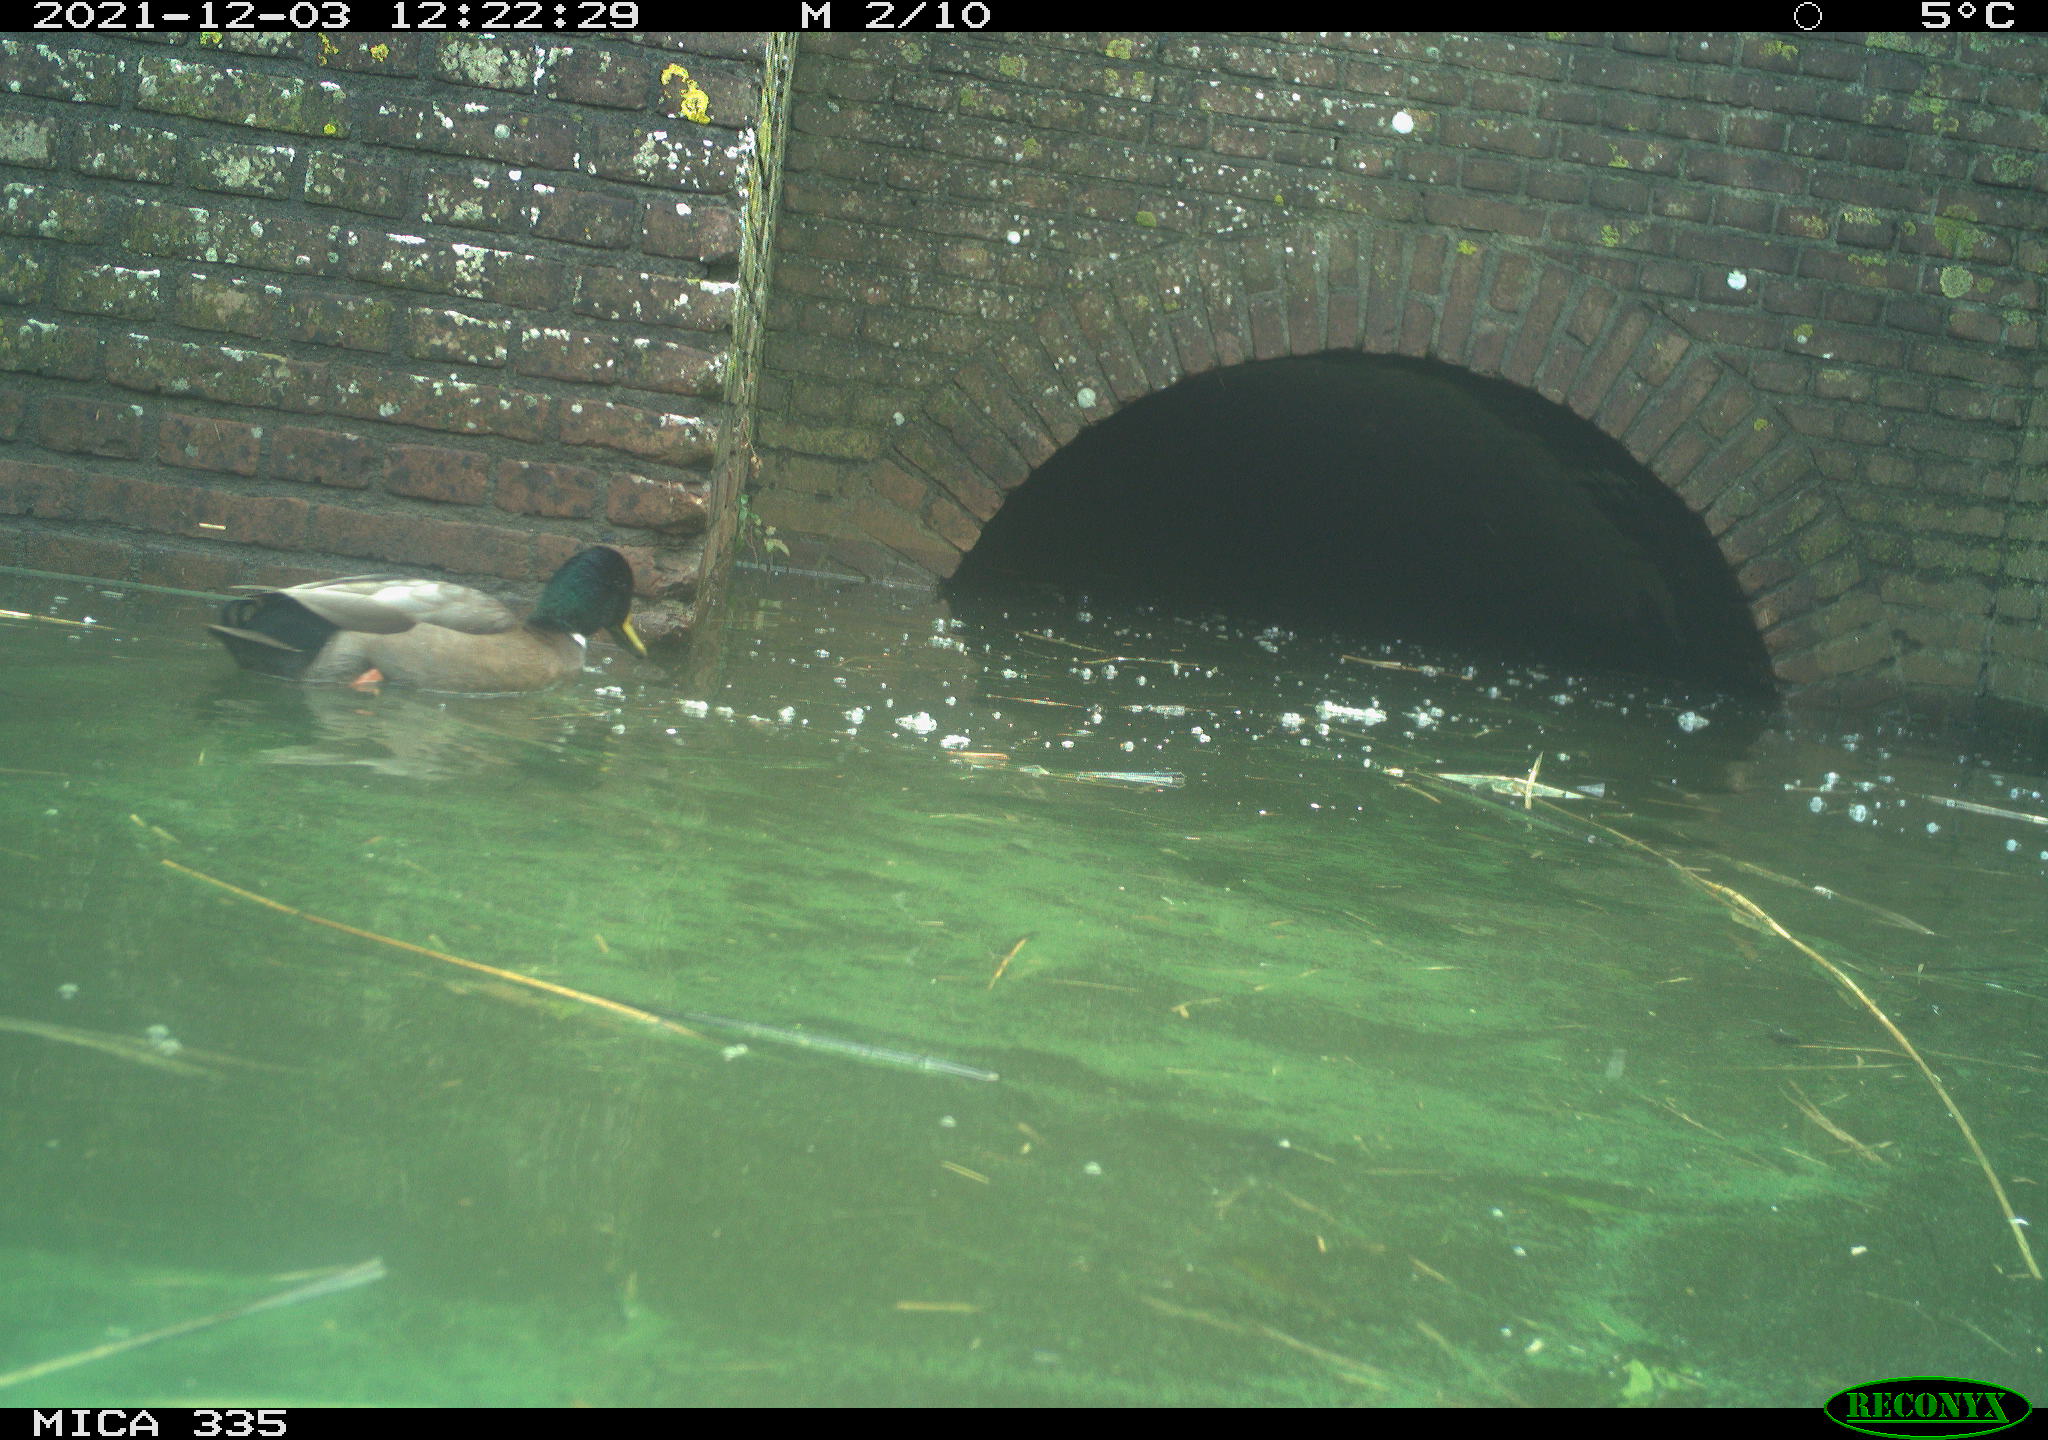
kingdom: Animalia
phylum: Chordata
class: Aves
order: Anseriformes
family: Anatidae
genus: Anas
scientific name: Anas platyrhynchos
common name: Mallard
